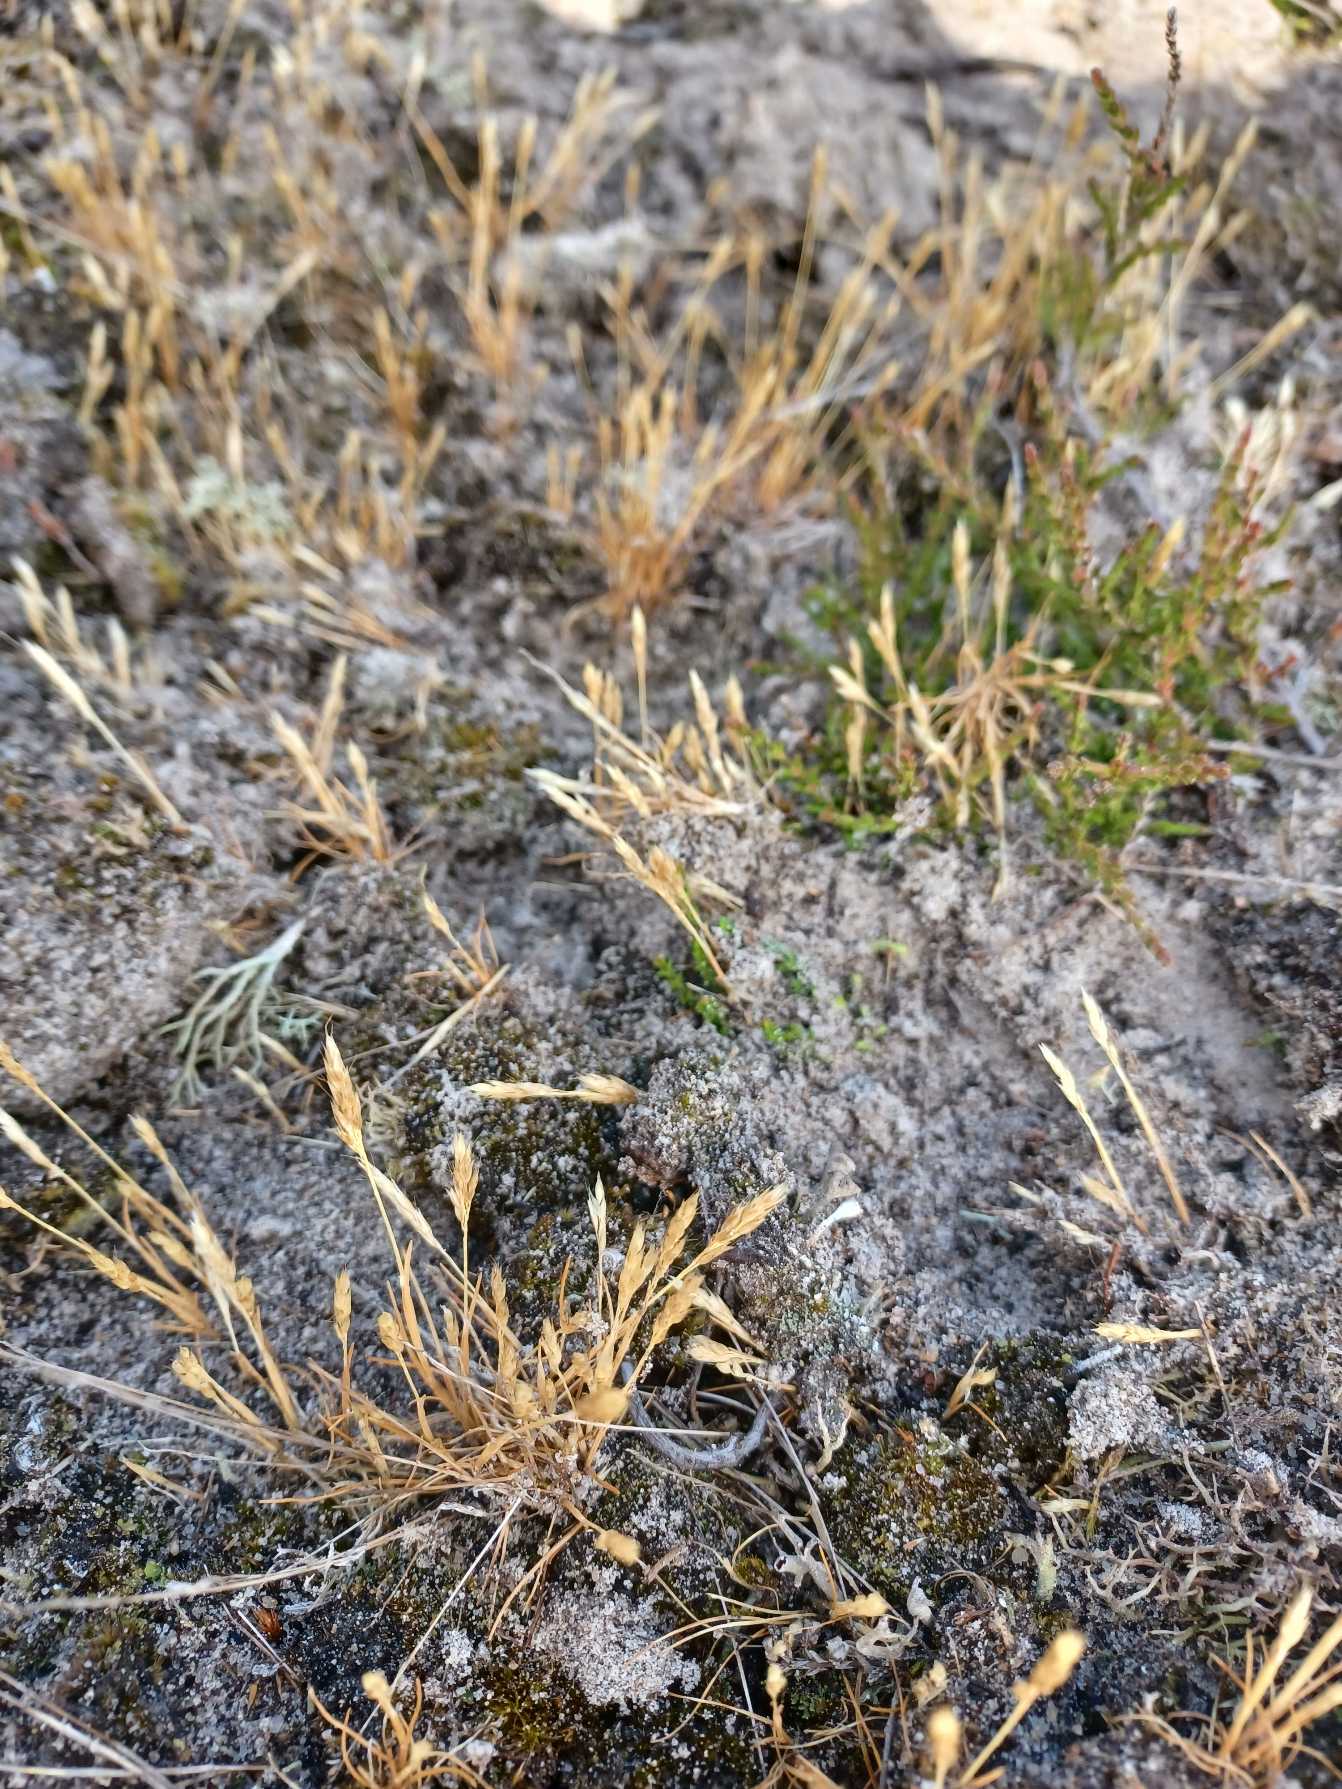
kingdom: Plantae
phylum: Tracheophyta
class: Liliopsida
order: Poales
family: Poaceae
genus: Aira
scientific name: Aira praecox
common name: Tidlig dværgbunke
